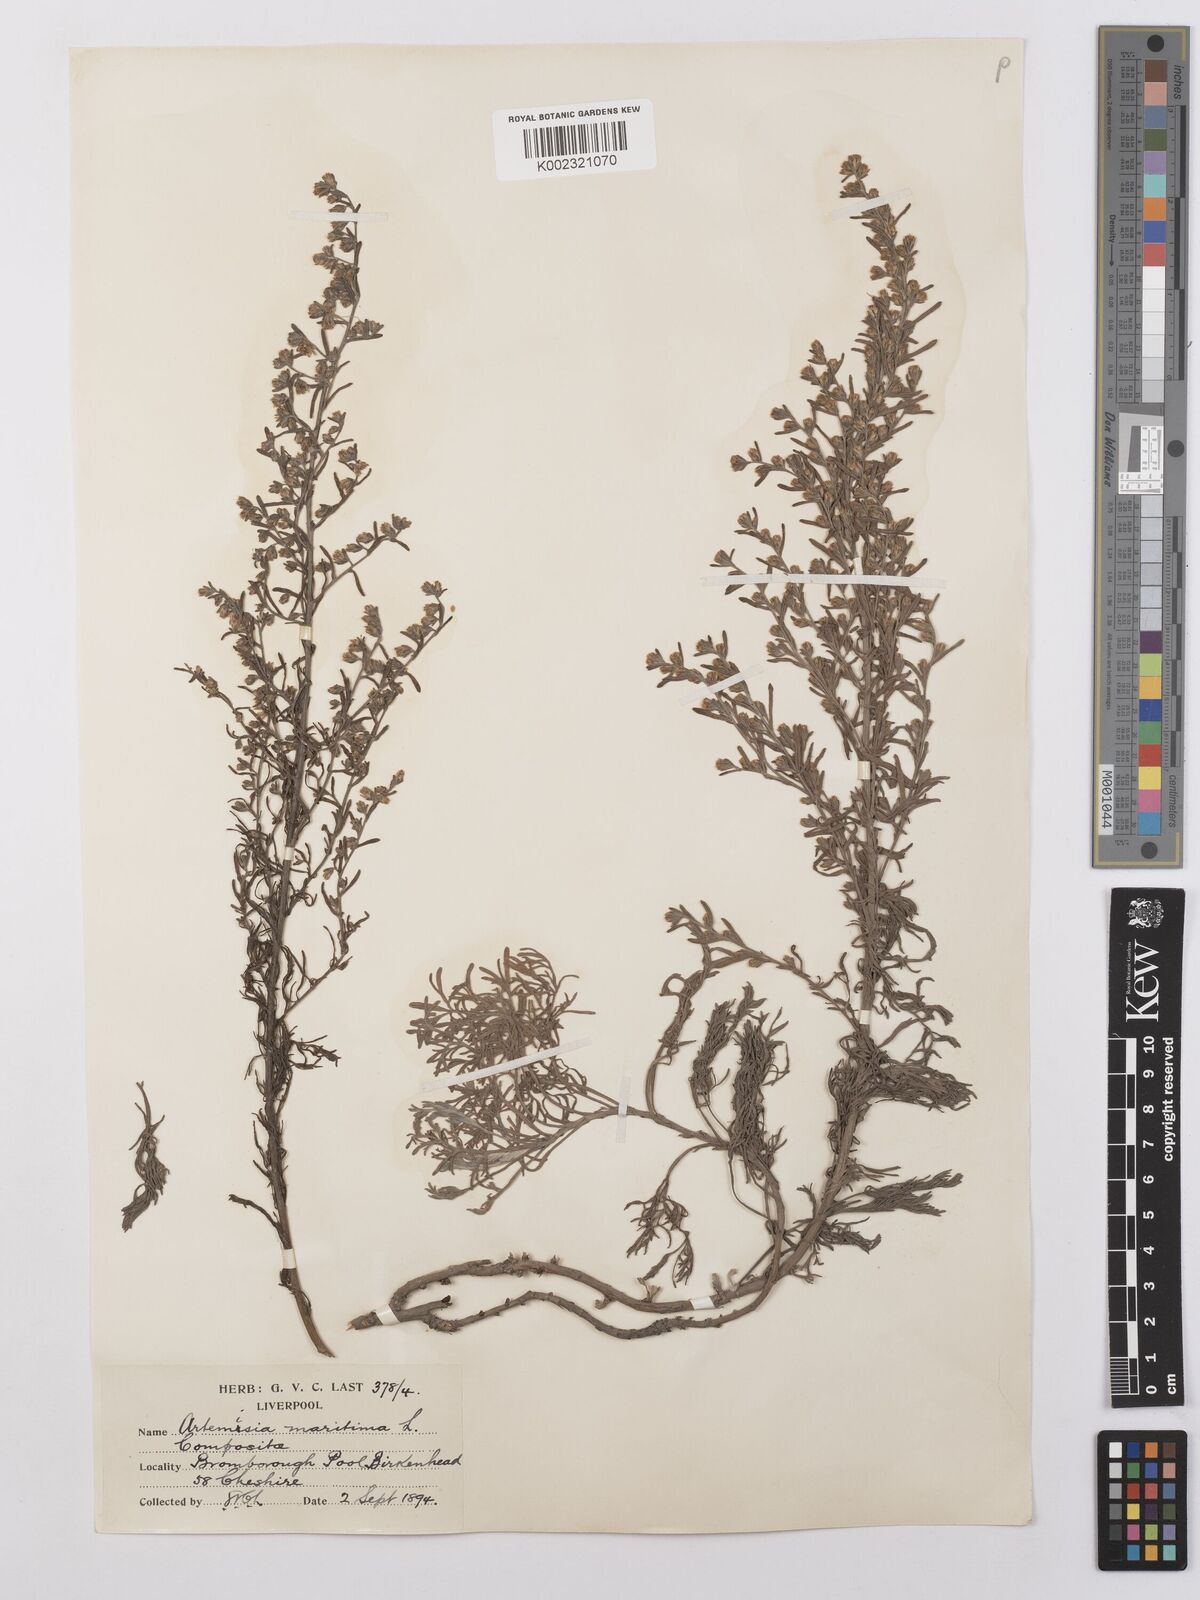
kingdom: Plantae
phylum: Tracheophyta
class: Magnoliopsida
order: Asterales
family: Asteraceae
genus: Artemisia
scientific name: Artemisia maritima
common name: Wormseed
